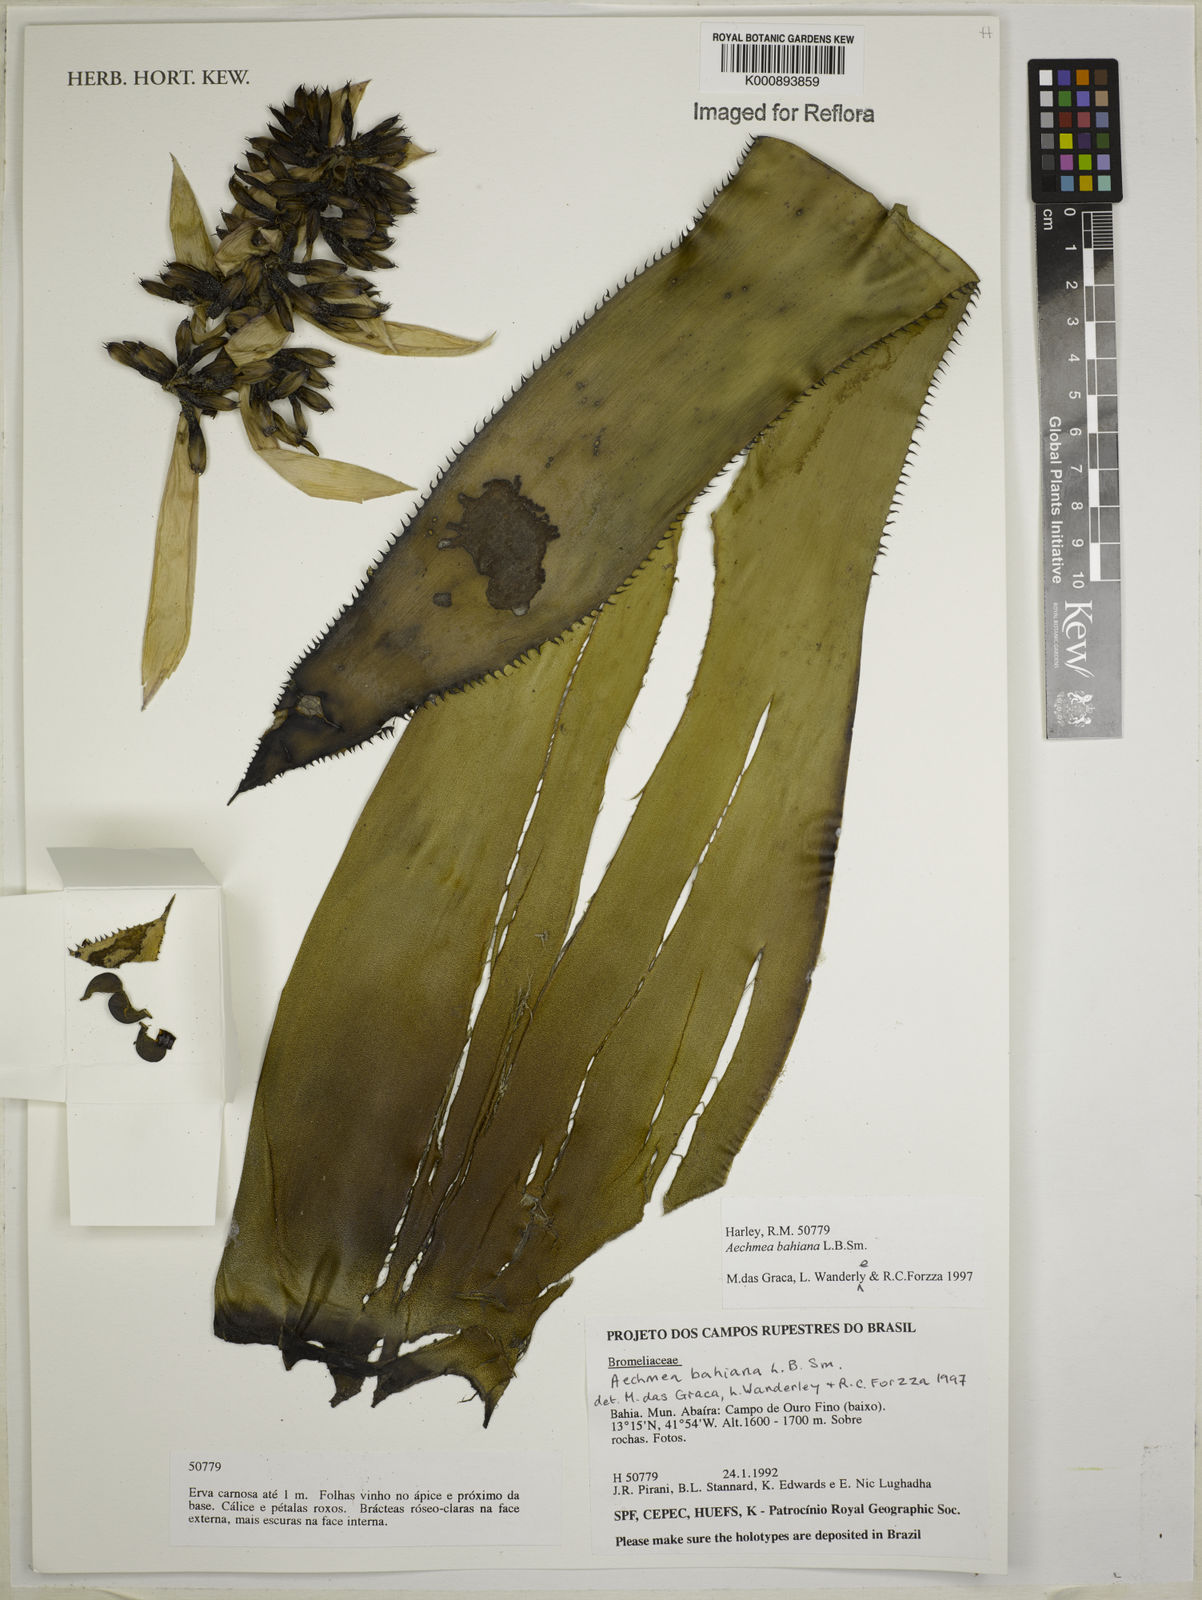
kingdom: Plantae
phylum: Tracheophyta
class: Liliopsida
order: Poales
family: Bromeliaceae
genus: Aechmea
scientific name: Aechmea bahiana
